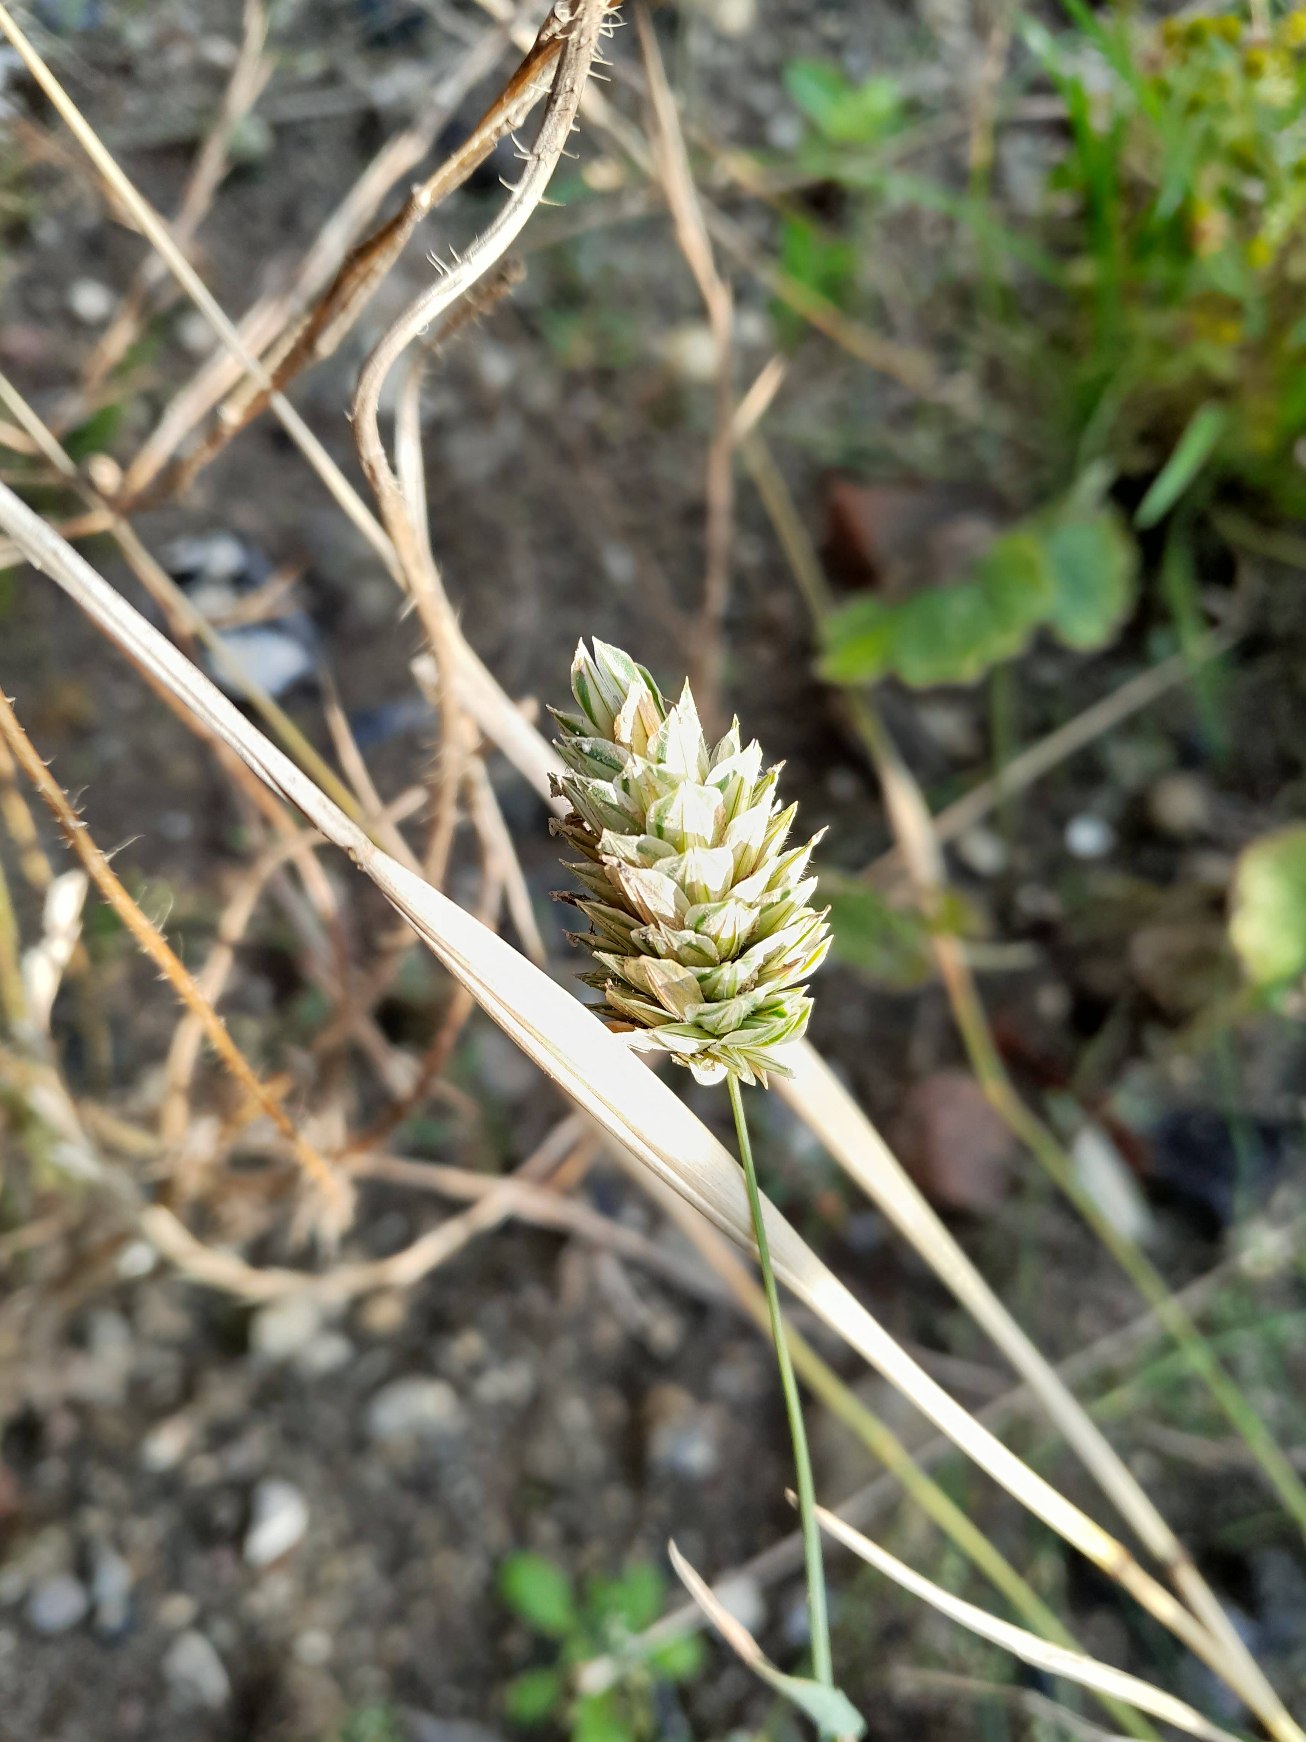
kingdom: Plantae
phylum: Tracheophyta
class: Liliopsida
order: Poales
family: Poaceae
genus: Phalaris
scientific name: Phalaris canariensis
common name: Kanariegræs
